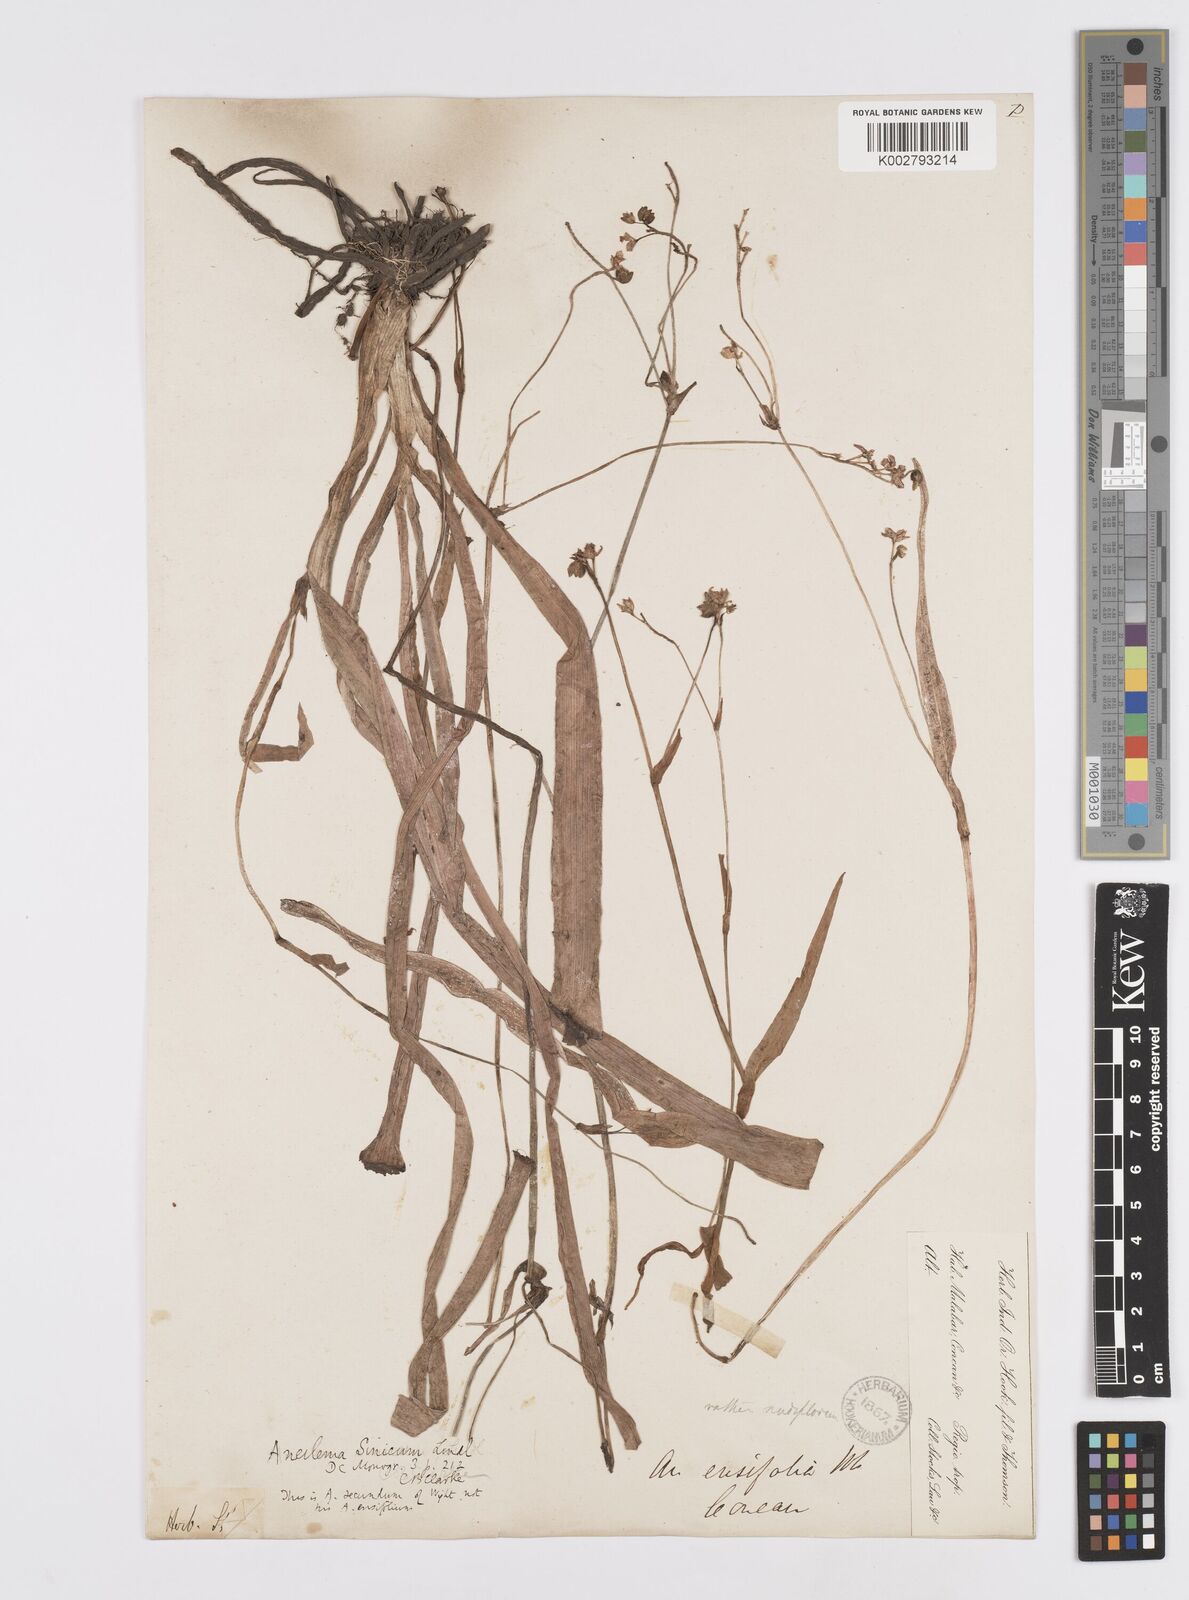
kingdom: Plantae
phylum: Tracheophyta
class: Liliopsida
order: Commelinales
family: Commelinaceae
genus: Murdannia
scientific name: Murdannia simplex
